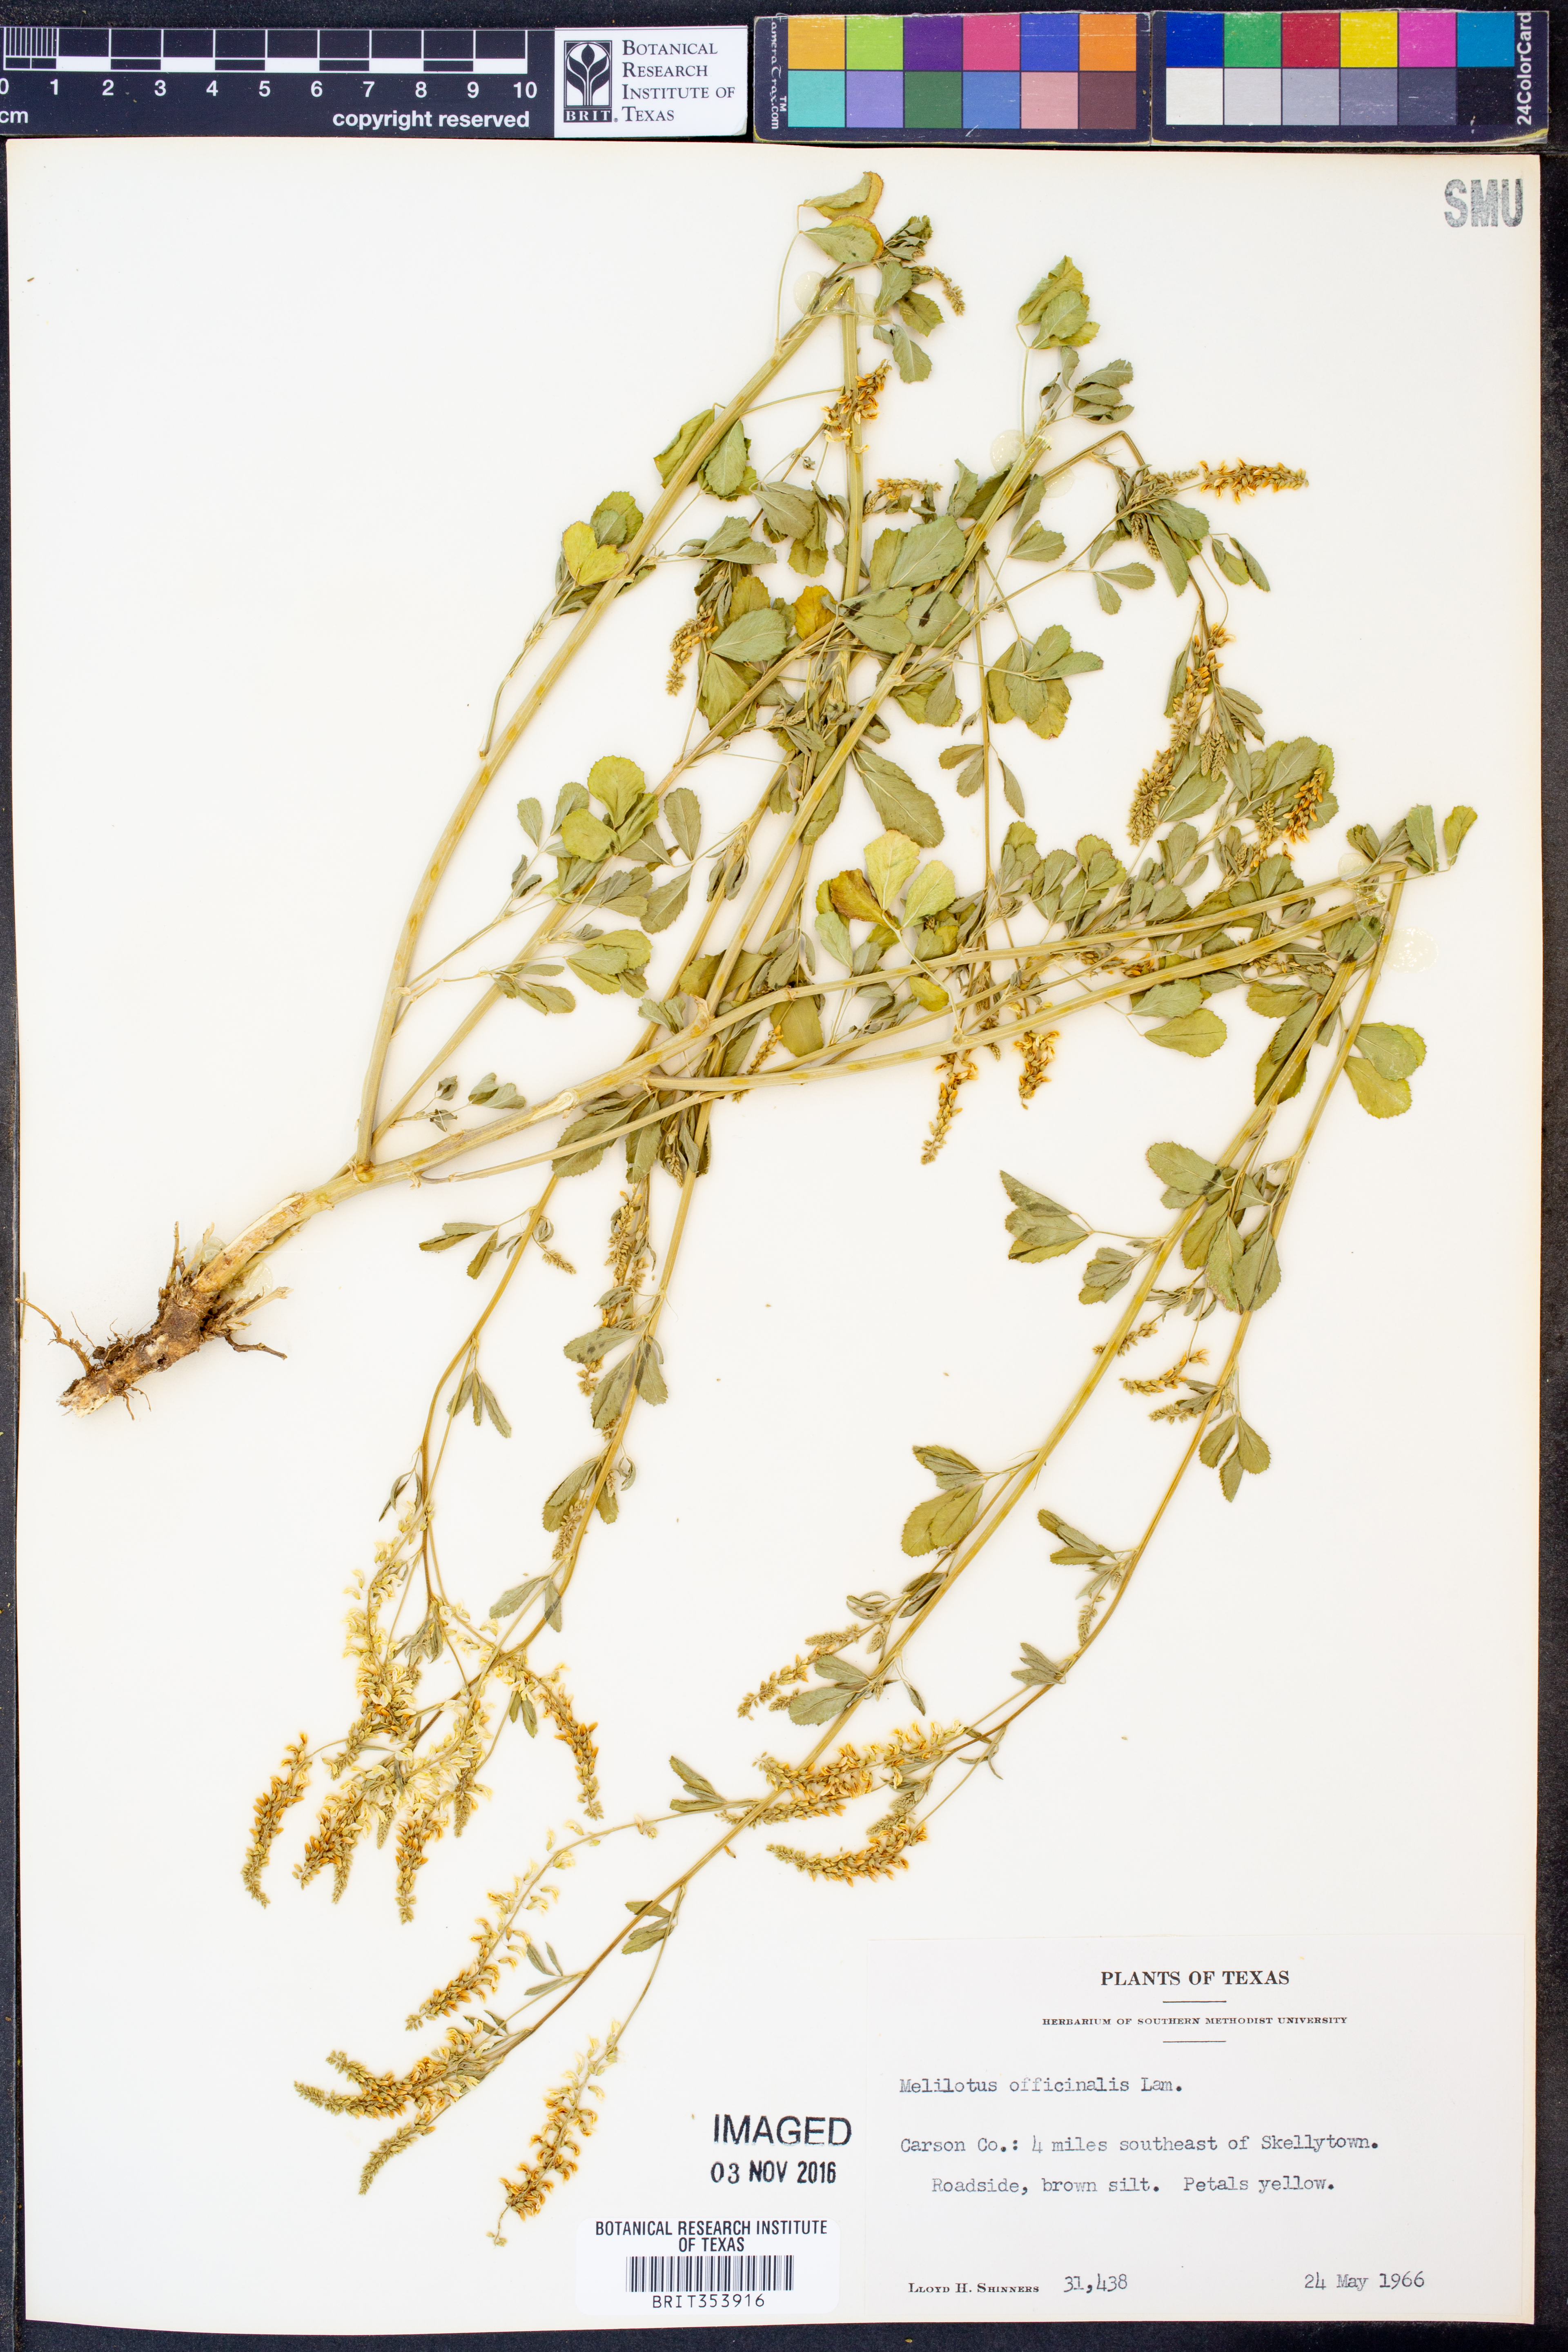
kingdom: Plantae
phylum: Tracheophyta
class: Magnoliopsida
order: Fabales
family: Fabaceae
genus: Melilotus
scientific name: Melilotus officinalis
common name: Sweetclover
